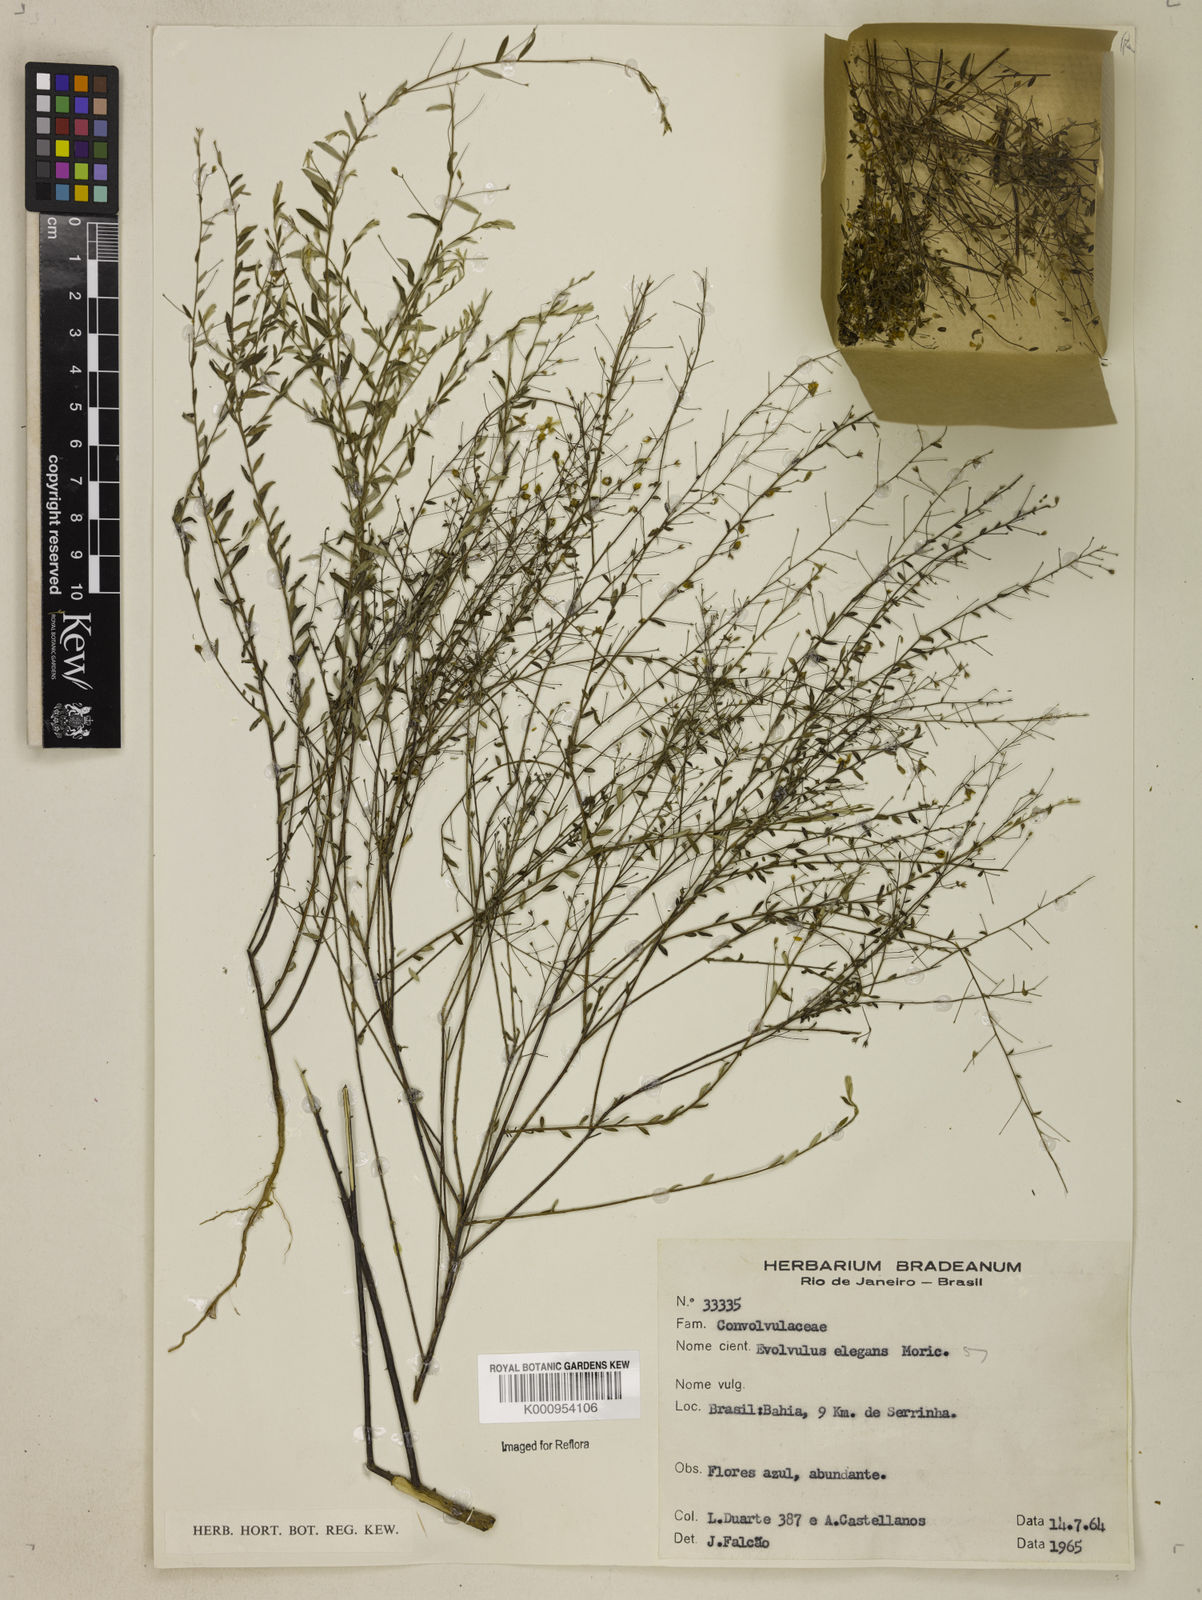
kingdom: Plantae
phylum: Tracheophyta
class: Magnoliopsida
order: Solanales
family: Convolvulaceae
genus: Evolvulus
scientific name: Evolvulus elegans
